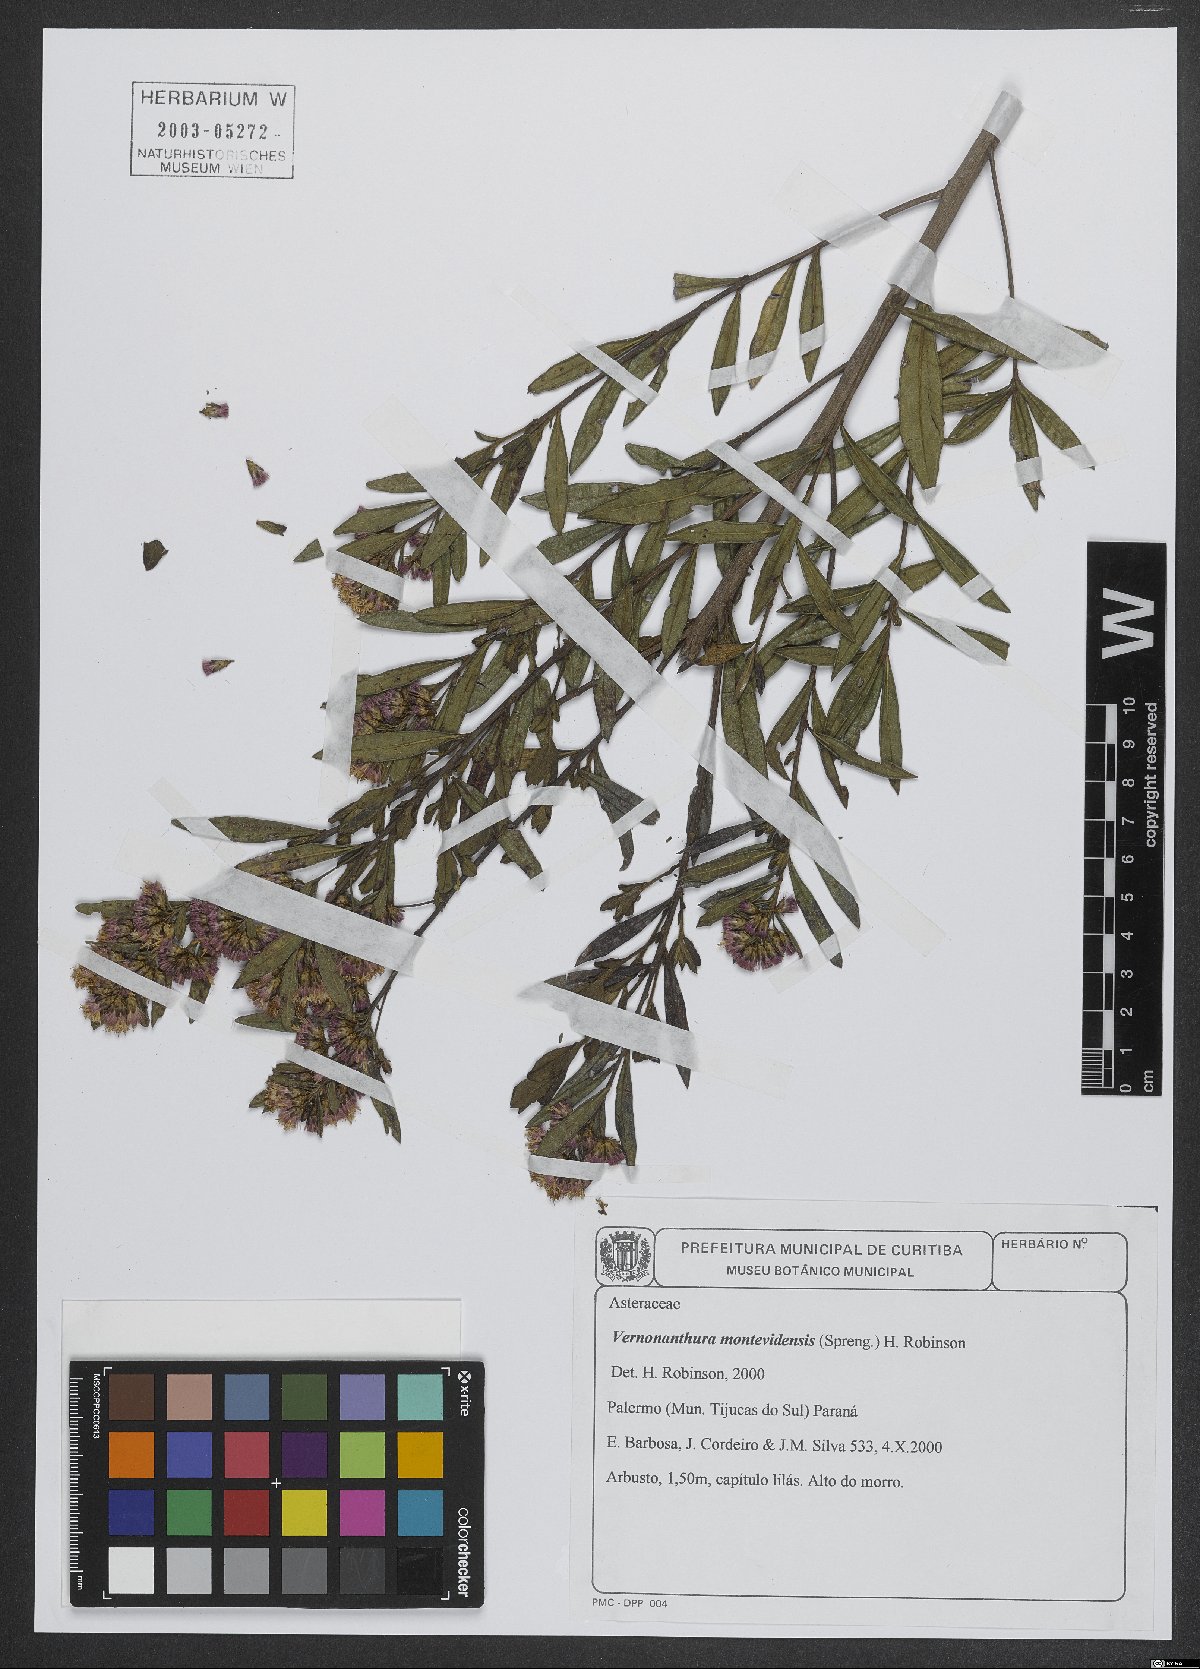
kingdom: Plantae
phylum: Tracheophyta
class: Magnoliopsida
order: Asterales
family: Asteraceae
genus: Vernonanthura
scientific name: Vernonanthura montevidensis
